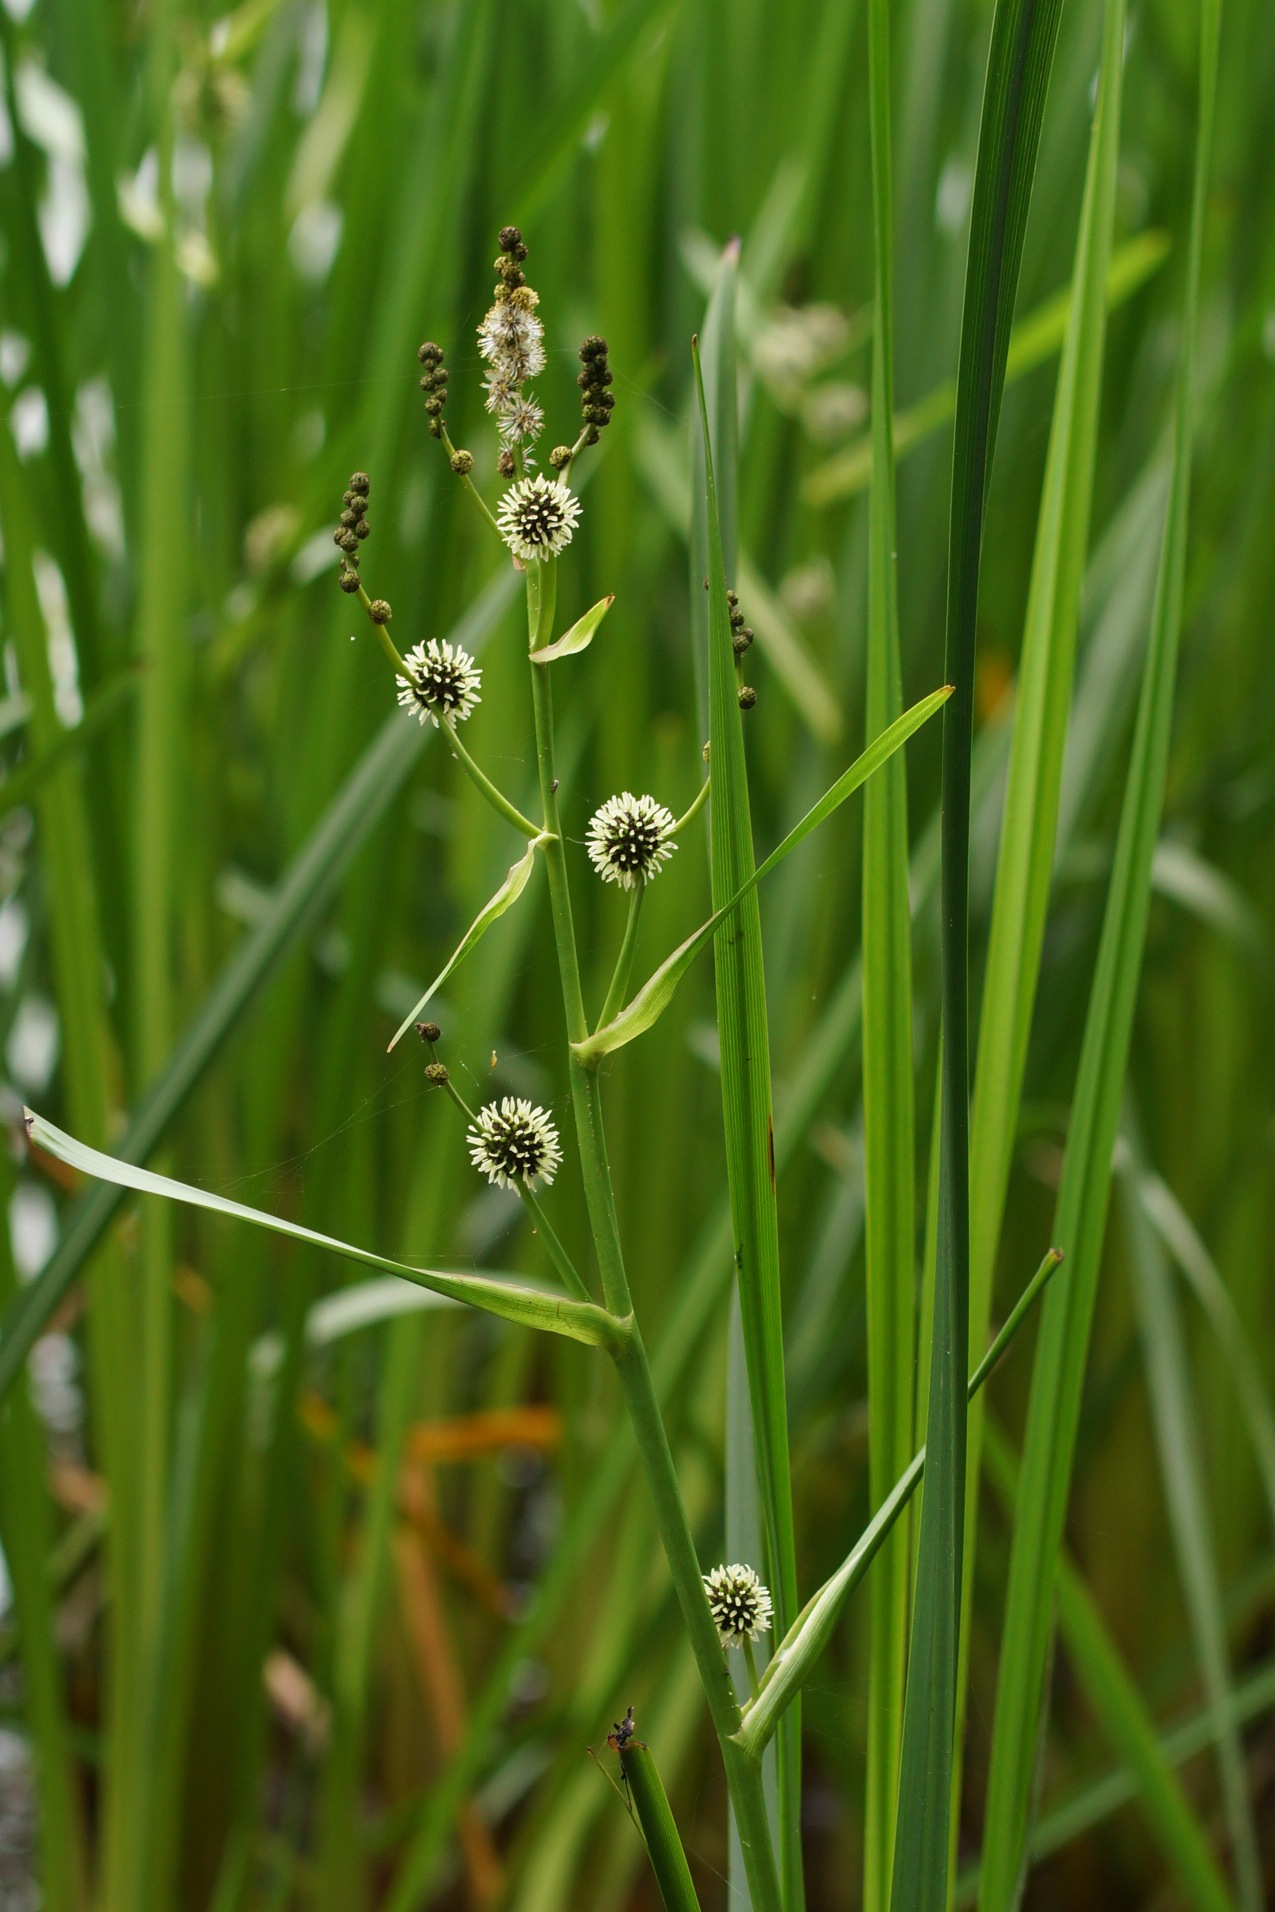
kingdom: Plantae
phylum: Tracheophyta
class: Liliopsida
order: Poales
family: Typhaceae
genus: Sparganium
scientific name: Sparganium erectum
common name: Grenet pindsvineknop
